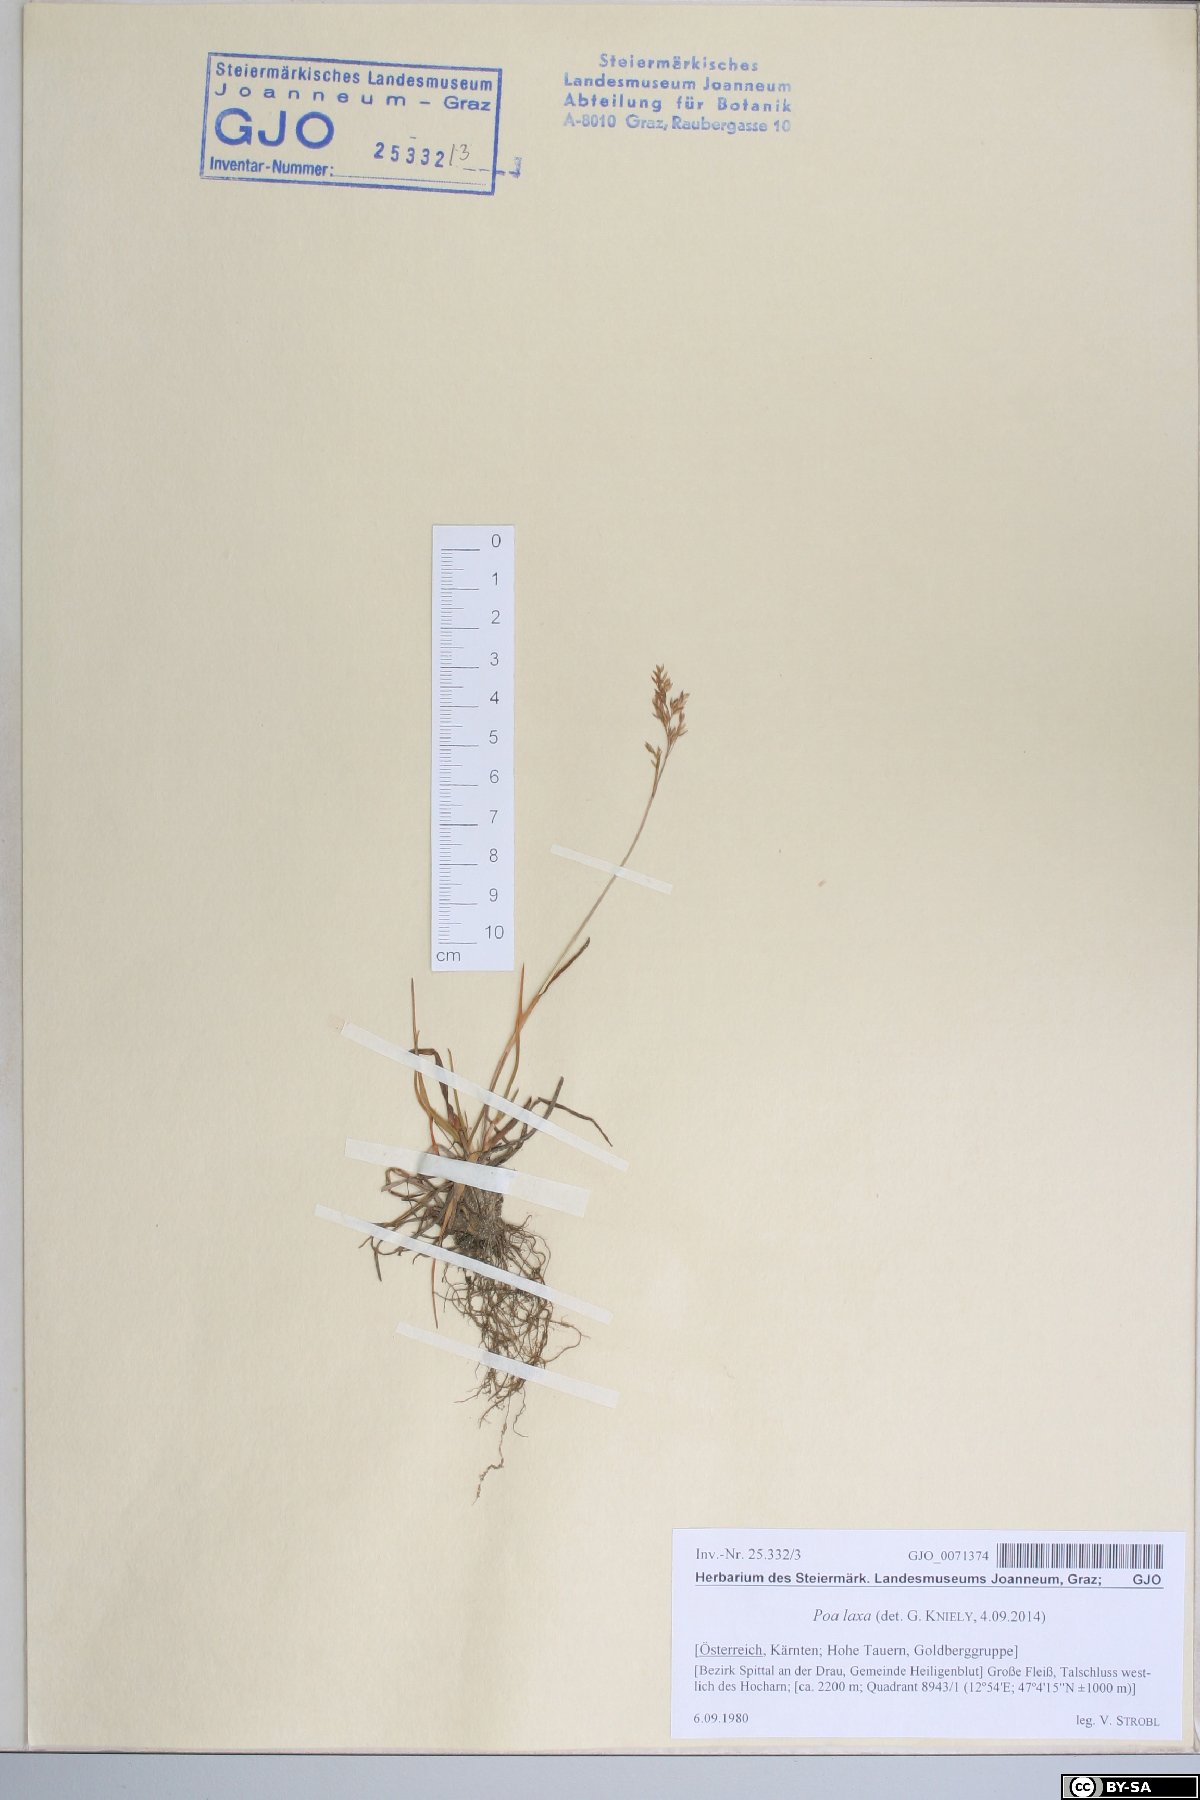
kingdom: Plantae
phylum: Tracheophyta
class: Liliopsida
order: Poales
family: Poaceae
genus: Poa
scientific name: Poa laxa
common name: Lax bluegrass
